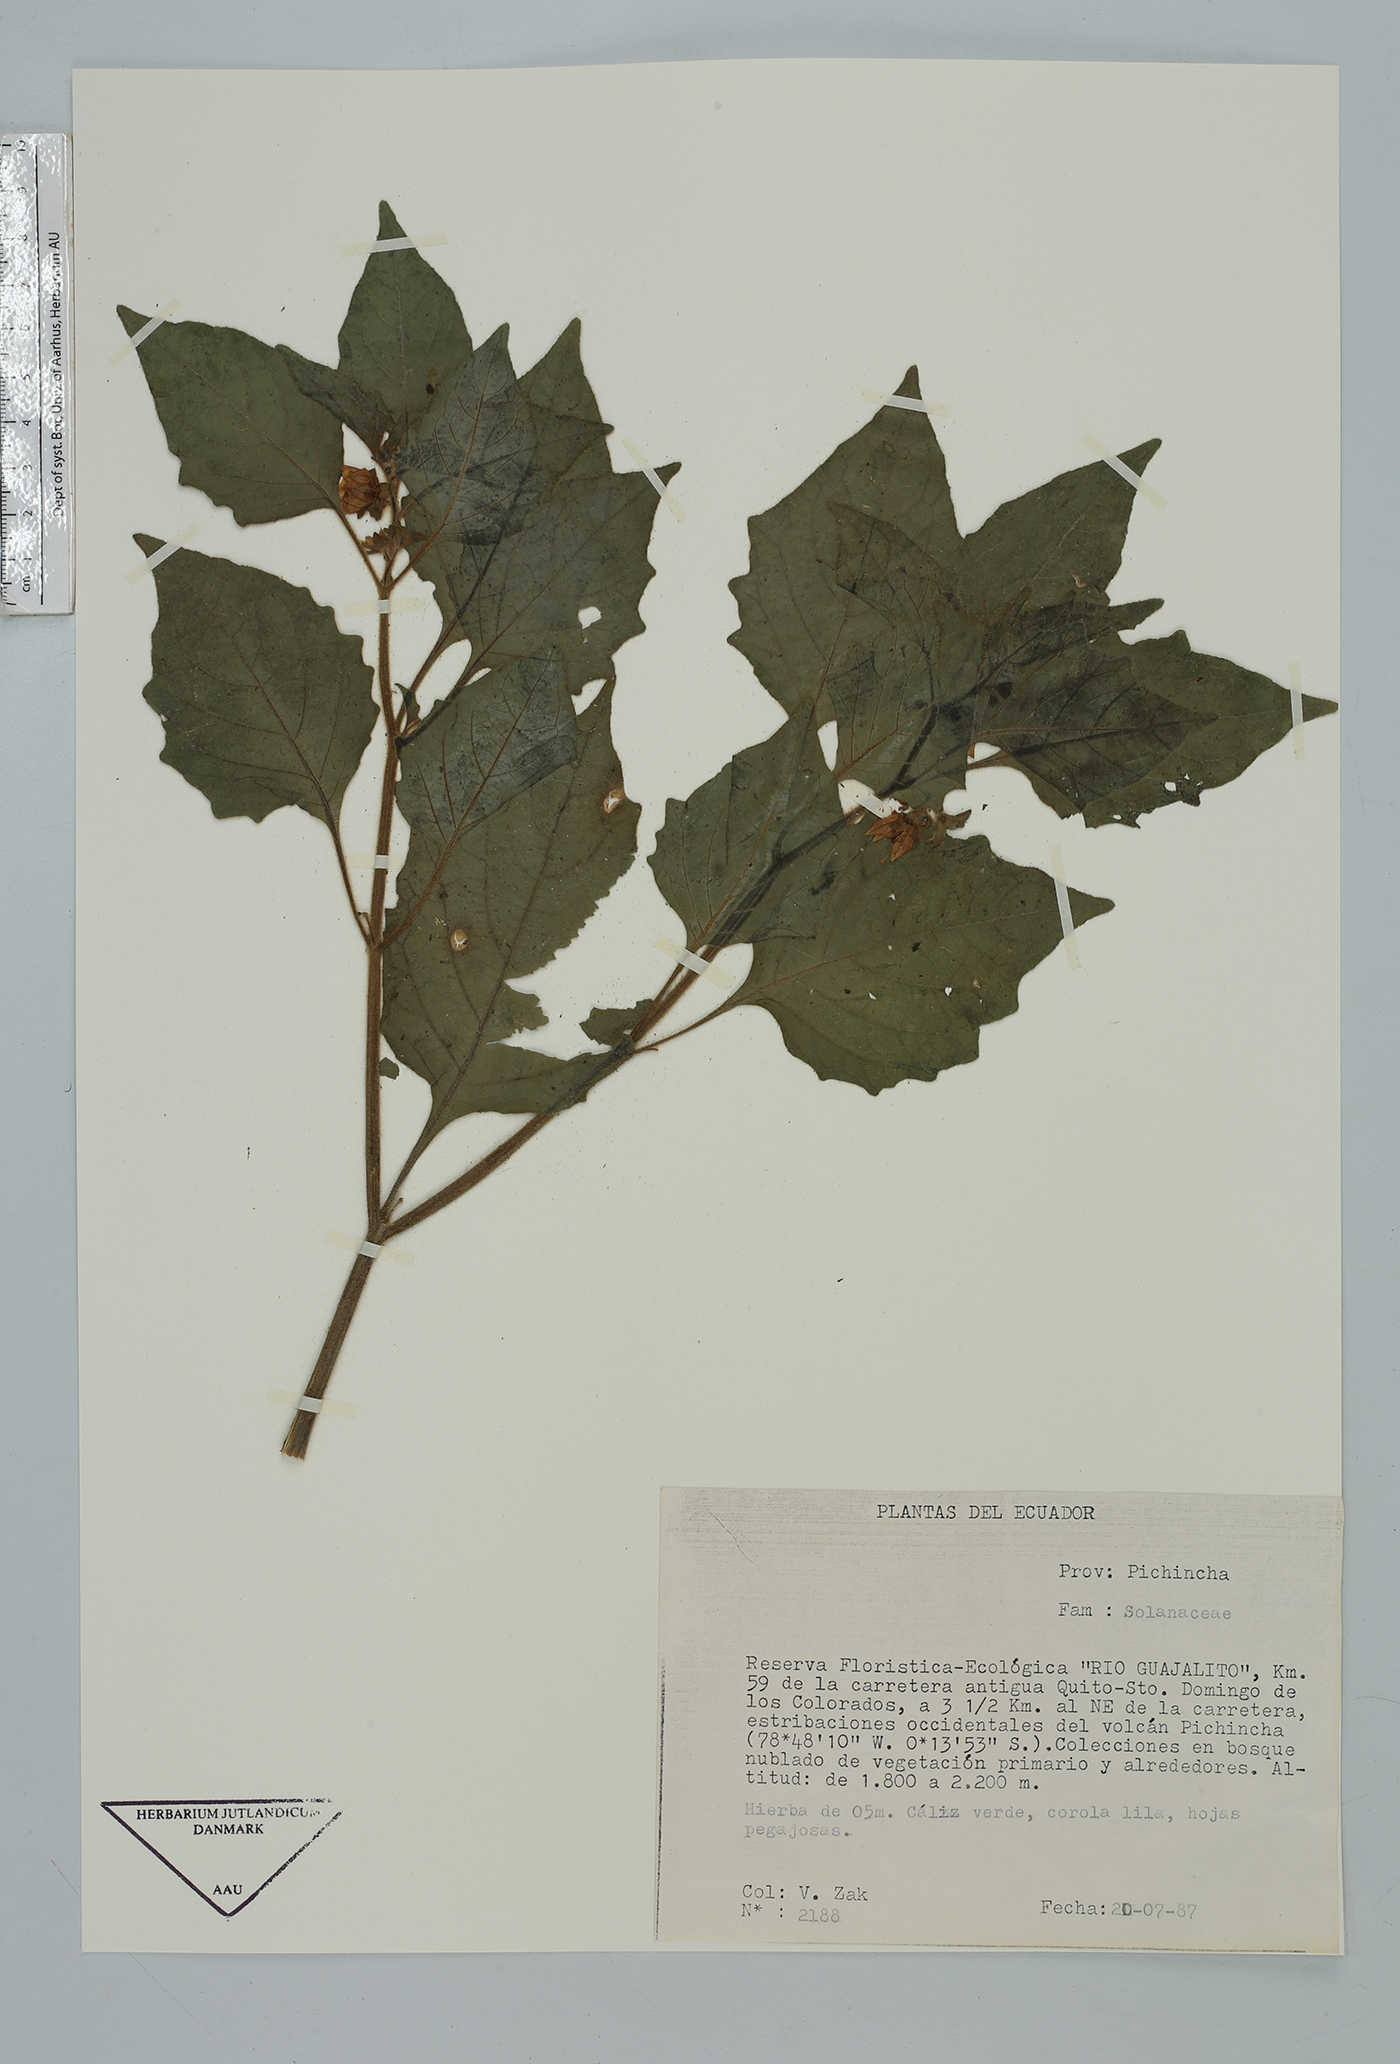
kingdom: Plantae
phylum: Tracheophyta
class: Magnoliopsida
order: Solanales
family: Solanaceae
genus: Nicandra
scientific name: Nicandra
